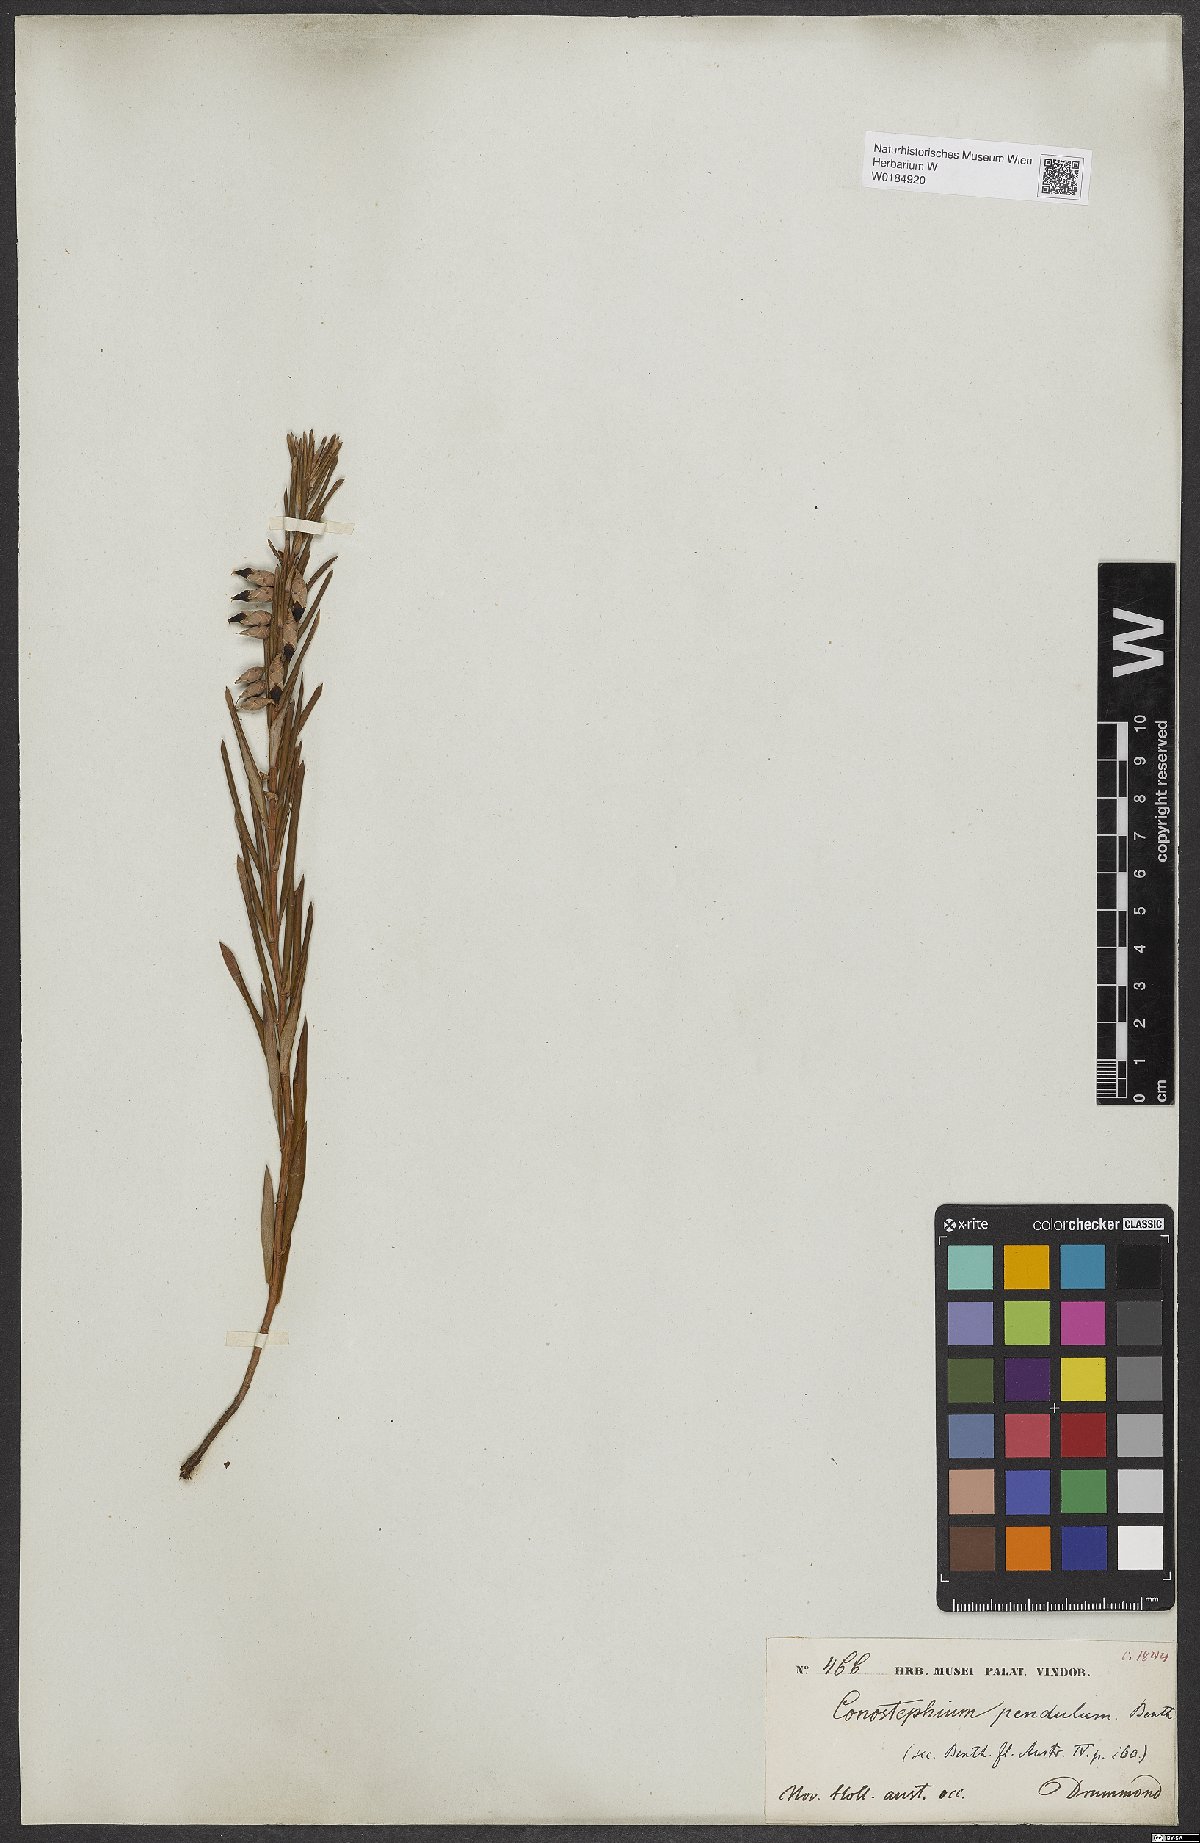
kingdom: Plantae
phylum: Tracheophyta
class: Magnoliopsida
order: Ericales
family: Ericaceae
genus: Conostephium
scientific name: Conostephium pendulum
